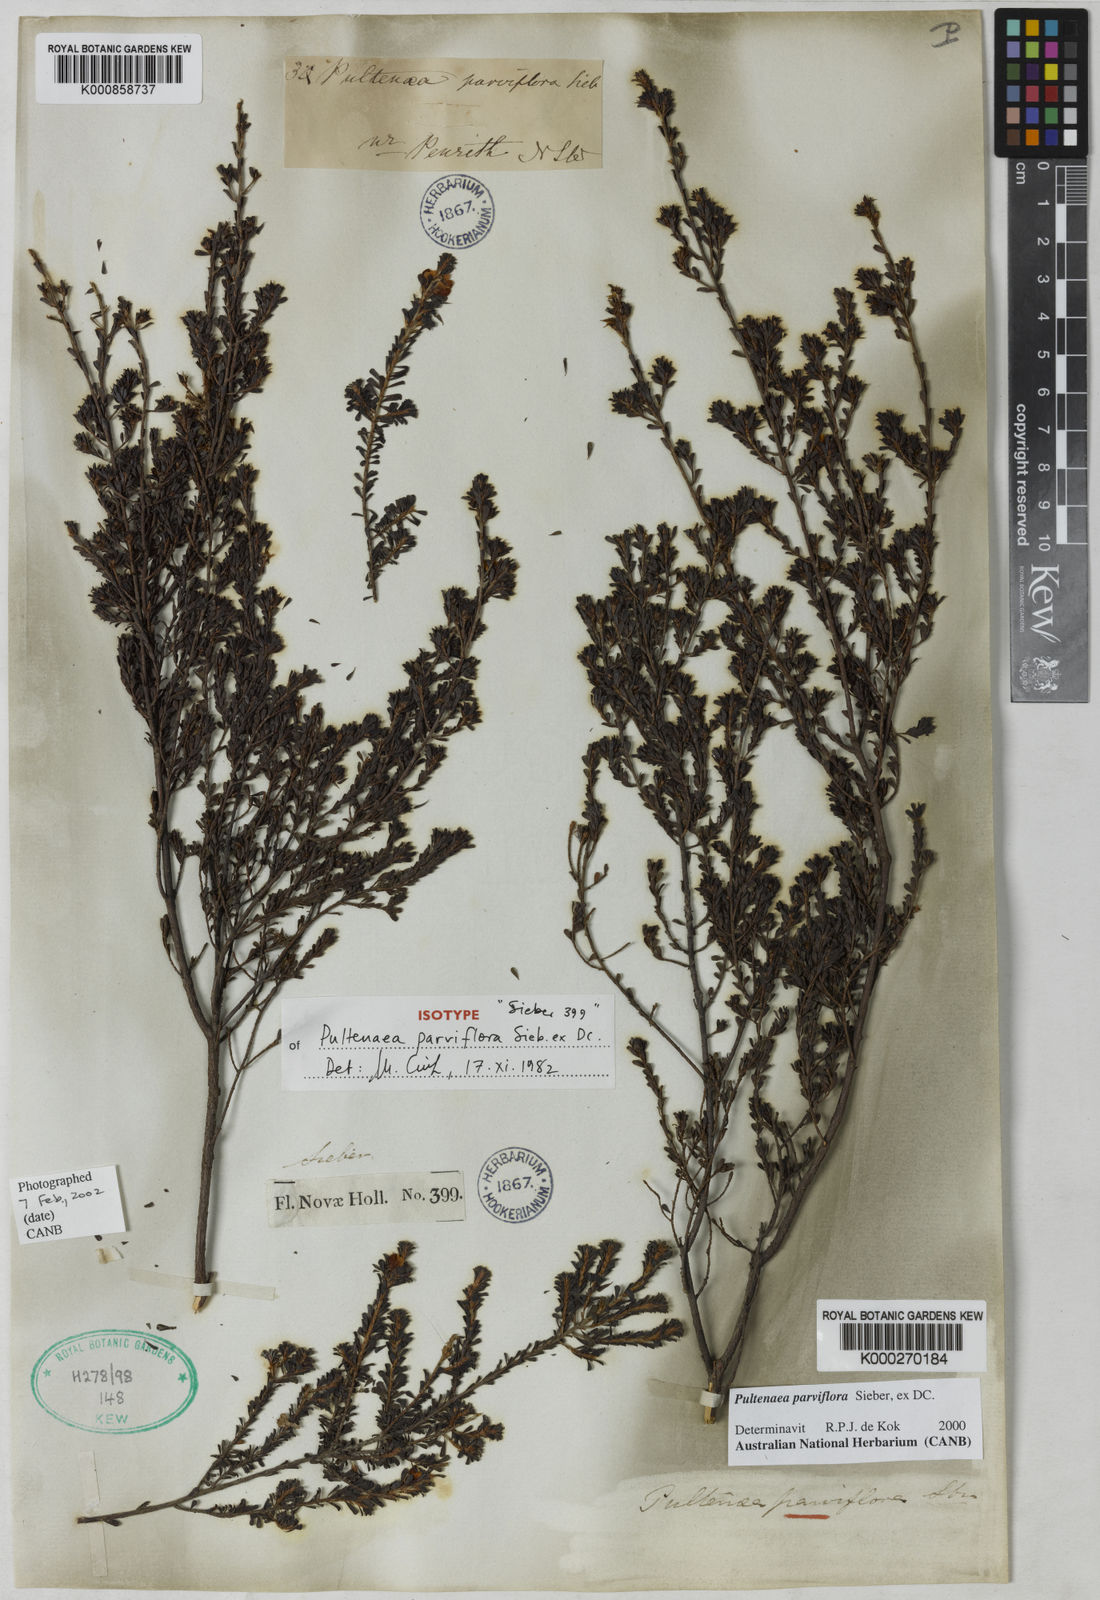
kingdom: Plantae
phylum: Tracheophyta
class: Magnoliopsida
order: Fabales
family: Fabaceae
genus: Pultenaea
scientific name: Pultenaea parviflora
